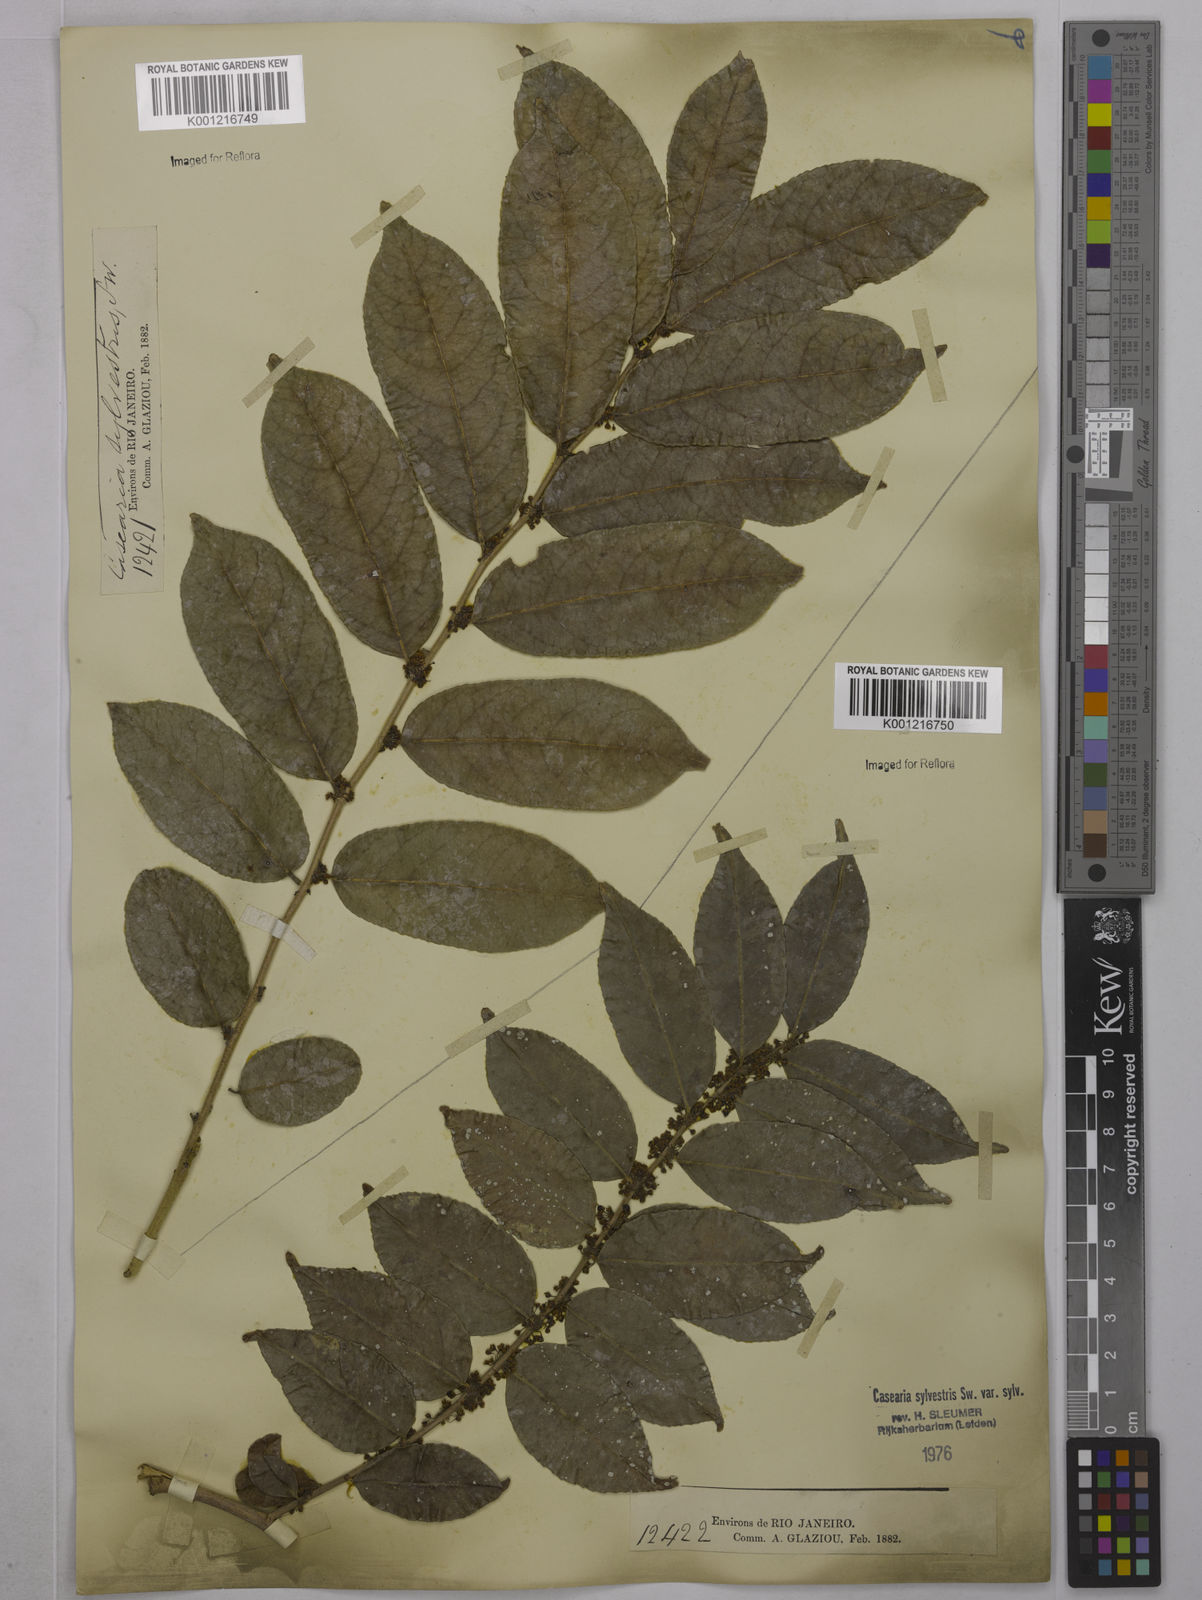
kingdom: Plantae
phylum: Tracheophyta
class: Magnoliopsida
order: Malpighiales
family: Salicaceae
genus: Casearia
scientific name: Casearia sylvestris
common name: Wild sage
